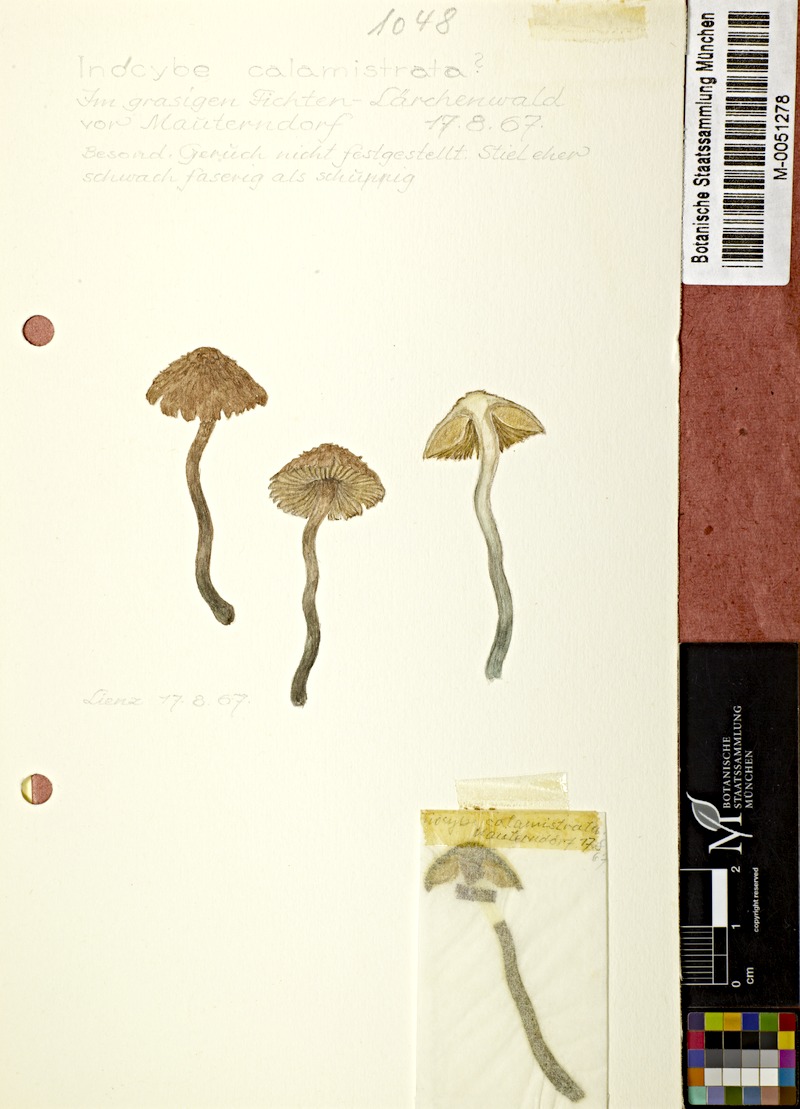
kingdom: Fungi
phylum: Basidiomycota
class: Agaricomycetes
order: Agaricales
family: Inocybaceae
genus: Inosperma
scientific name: Inosperma calamistratum
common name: Greenfoot fibrecap
